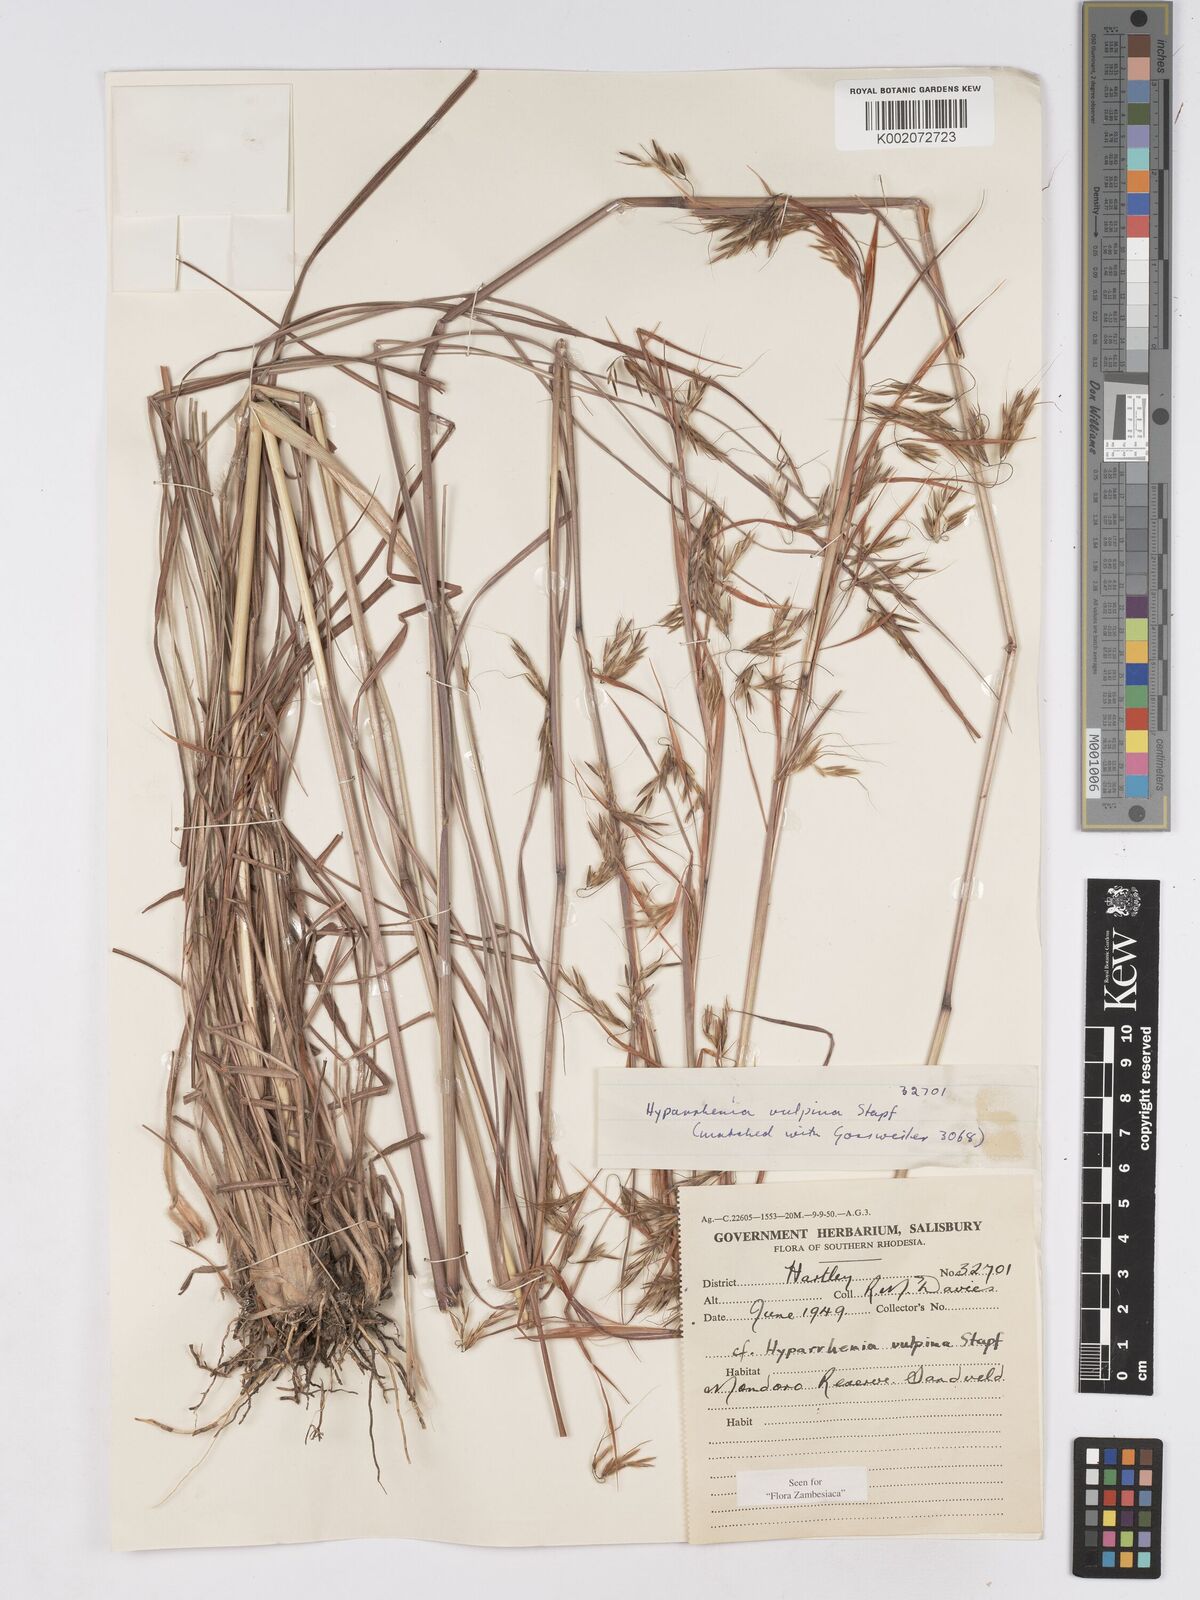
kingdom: Plantae
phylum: Tracheophyta
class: Liliopsida
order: Poales
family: Poaceae
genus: Hyparrhenia
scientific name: Hyparrhenia nyassae
